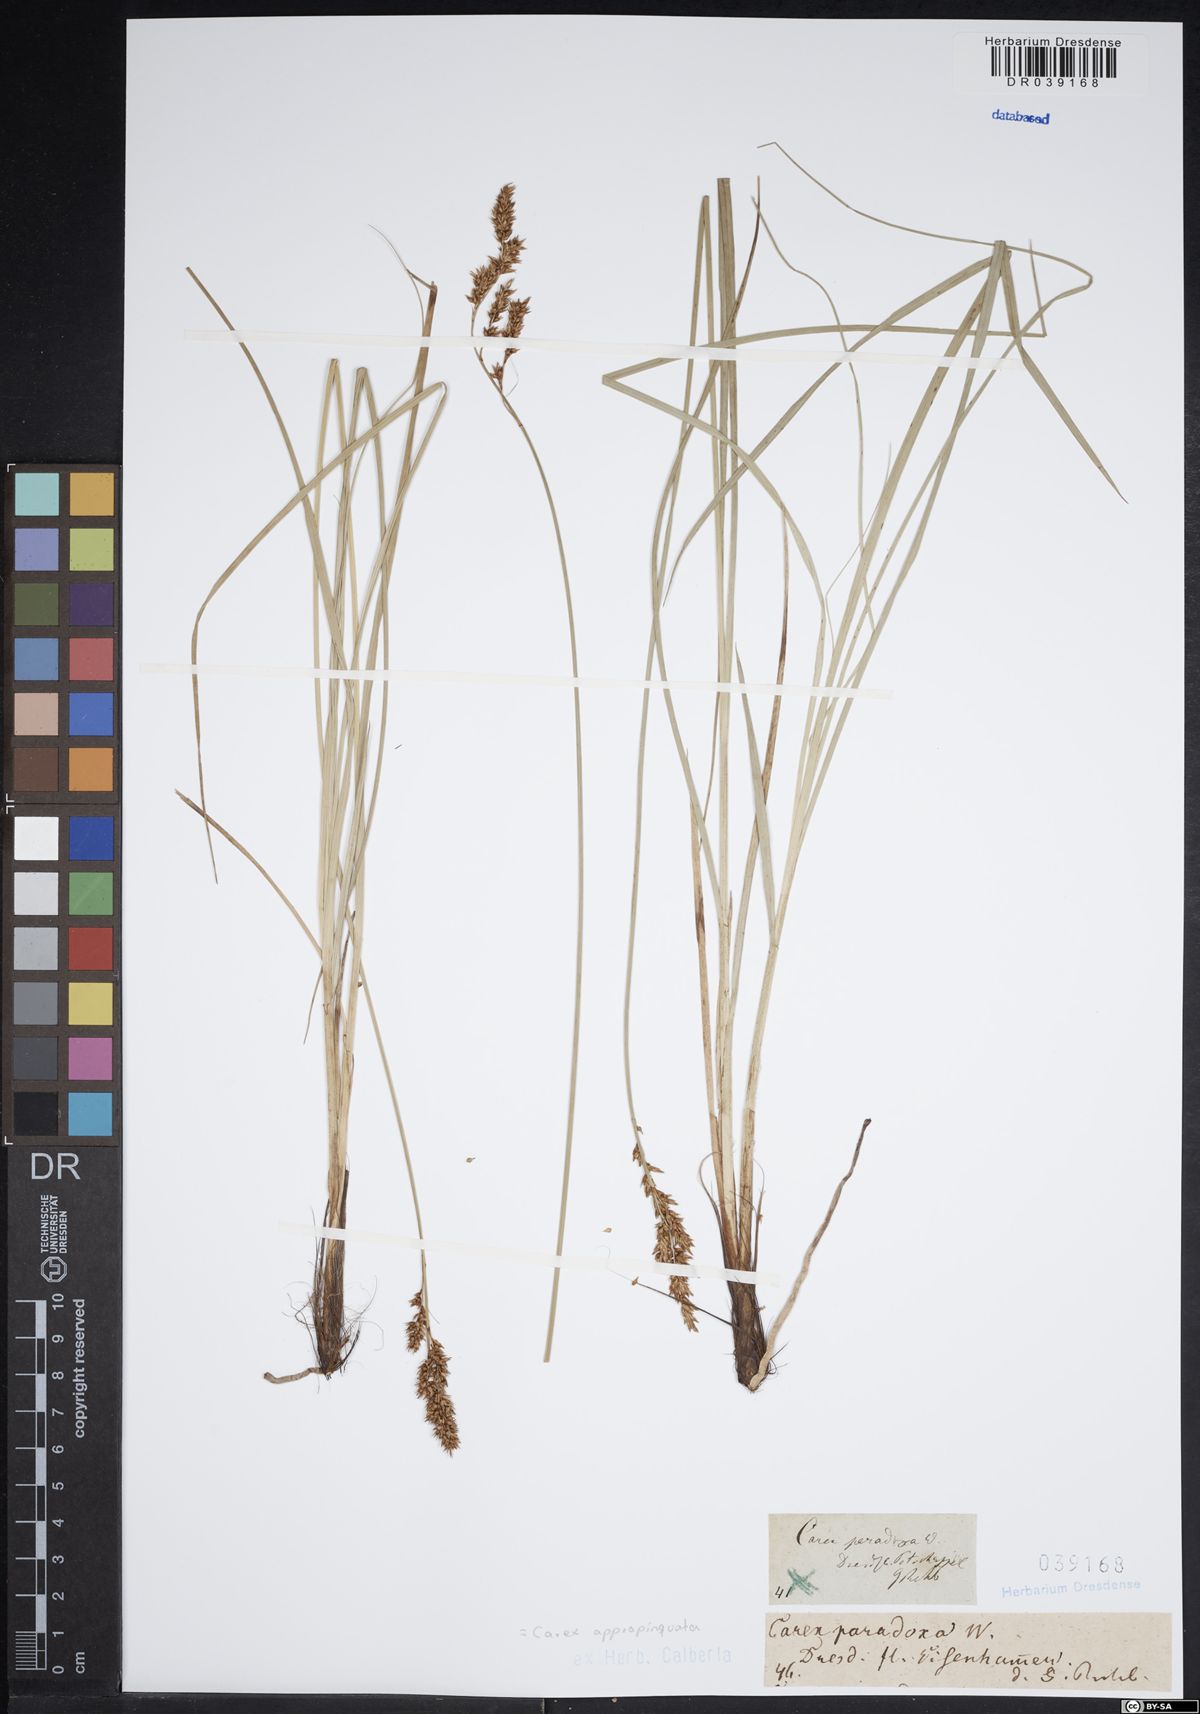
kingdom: Plantae
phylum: Tracheophyta
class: Liliopsida
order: Poales
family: Cyperaceae
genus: Carex
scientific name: Carex appropinquata
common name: Fibrous tussock-sedge
